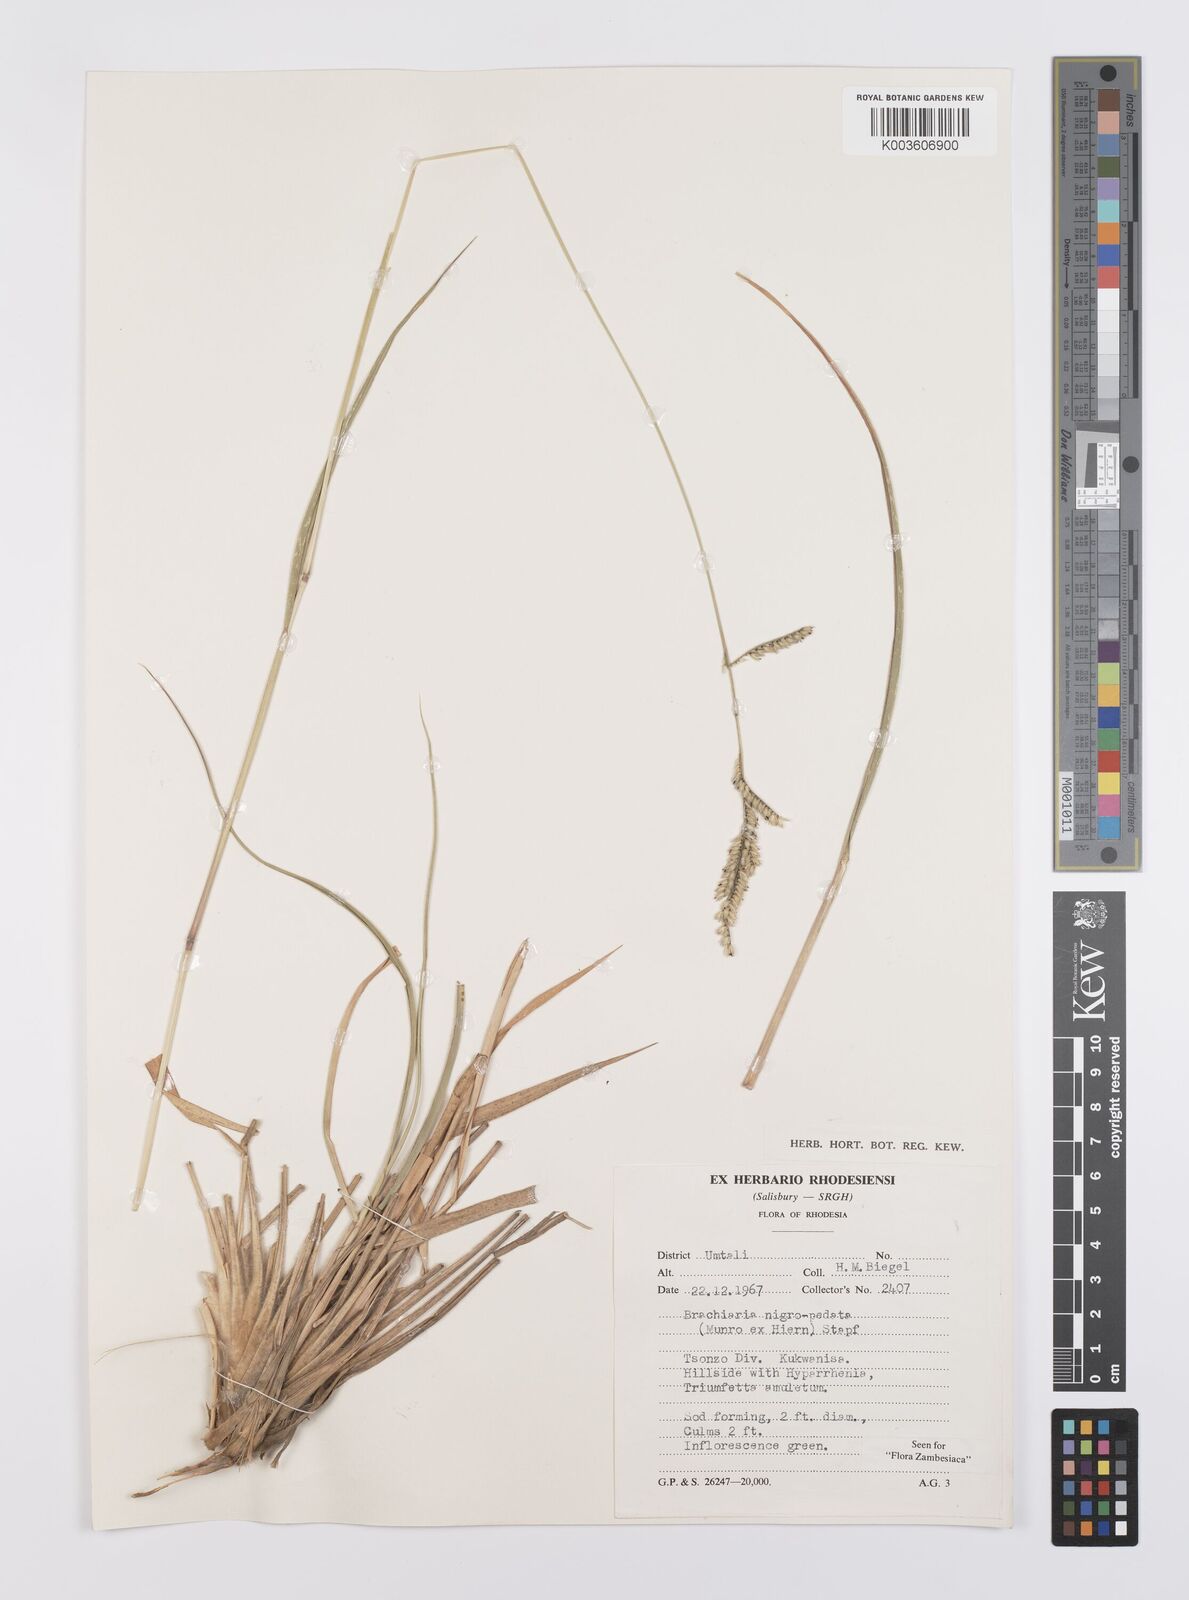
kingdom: Plantae
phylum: Tracheophyta
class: Liliopsida
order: Poales
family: Poaceae
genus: Urochloa
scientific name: Urochloa nigropedata
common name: Spotted signal grass
